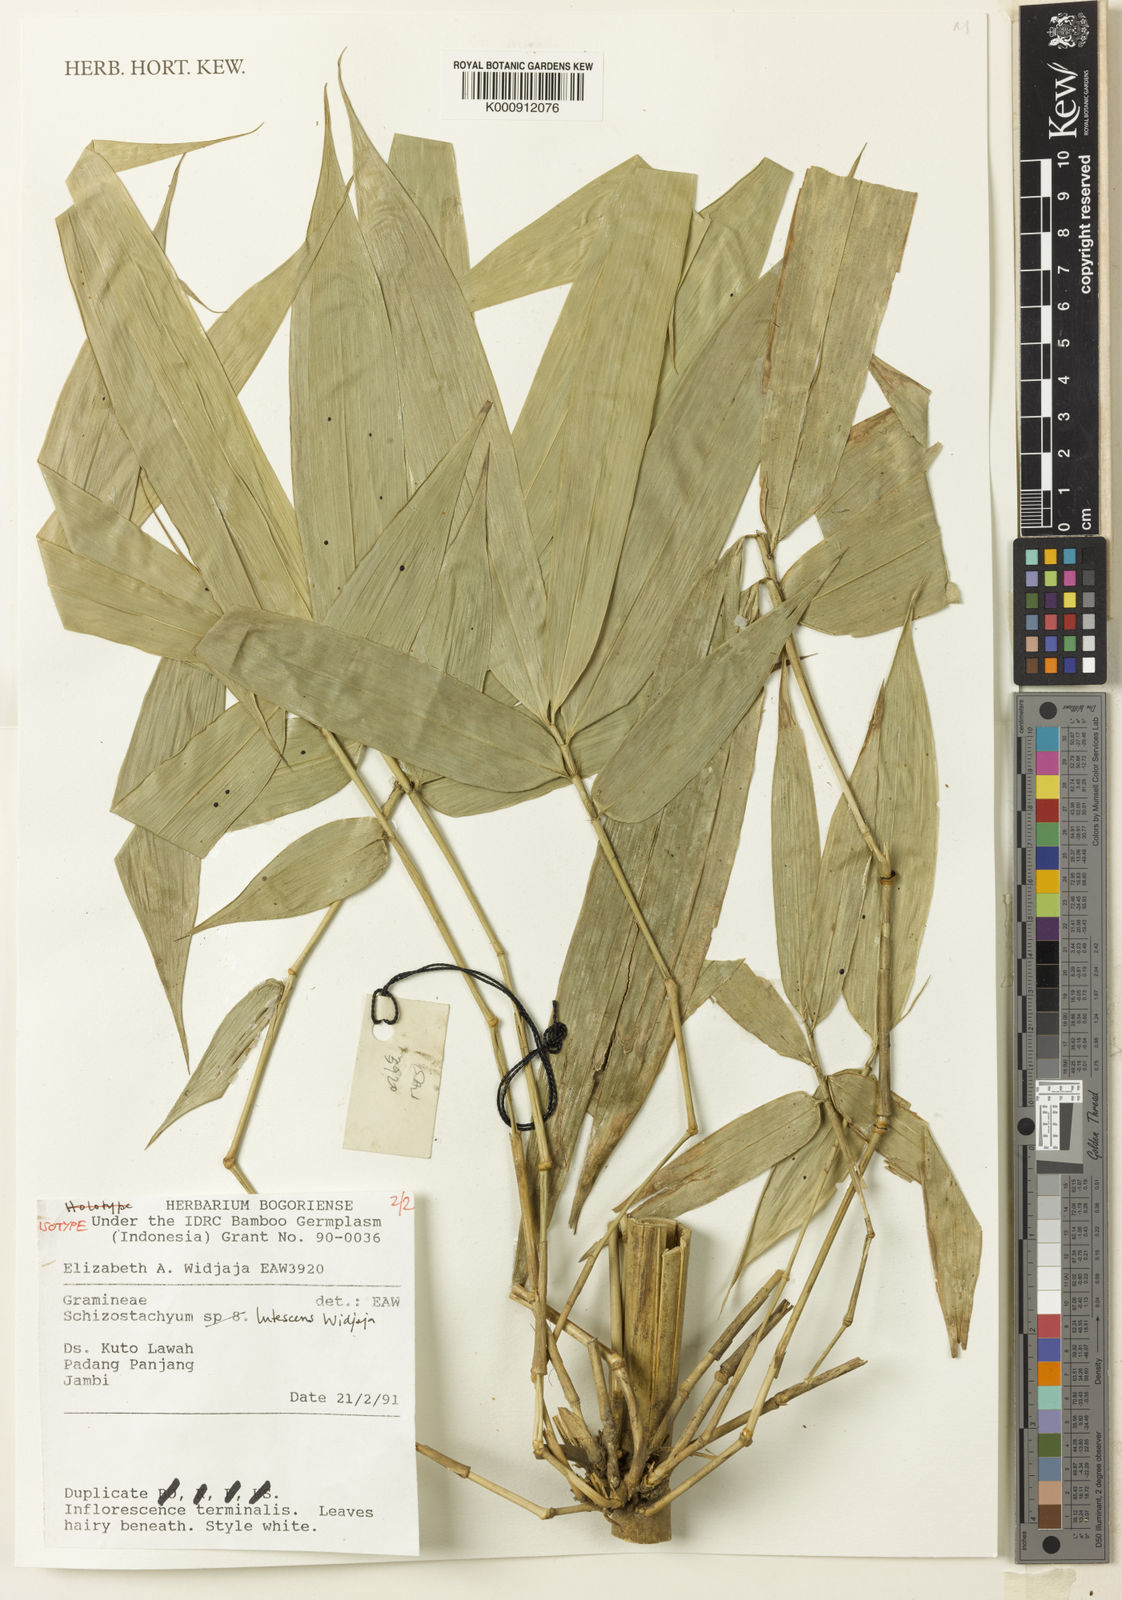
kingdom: Plantae
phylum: Tracheophyta
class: Liliopsida
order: Poales
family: Poaceae
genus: Schizostachyum
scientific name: Schizostachyum lutescens
